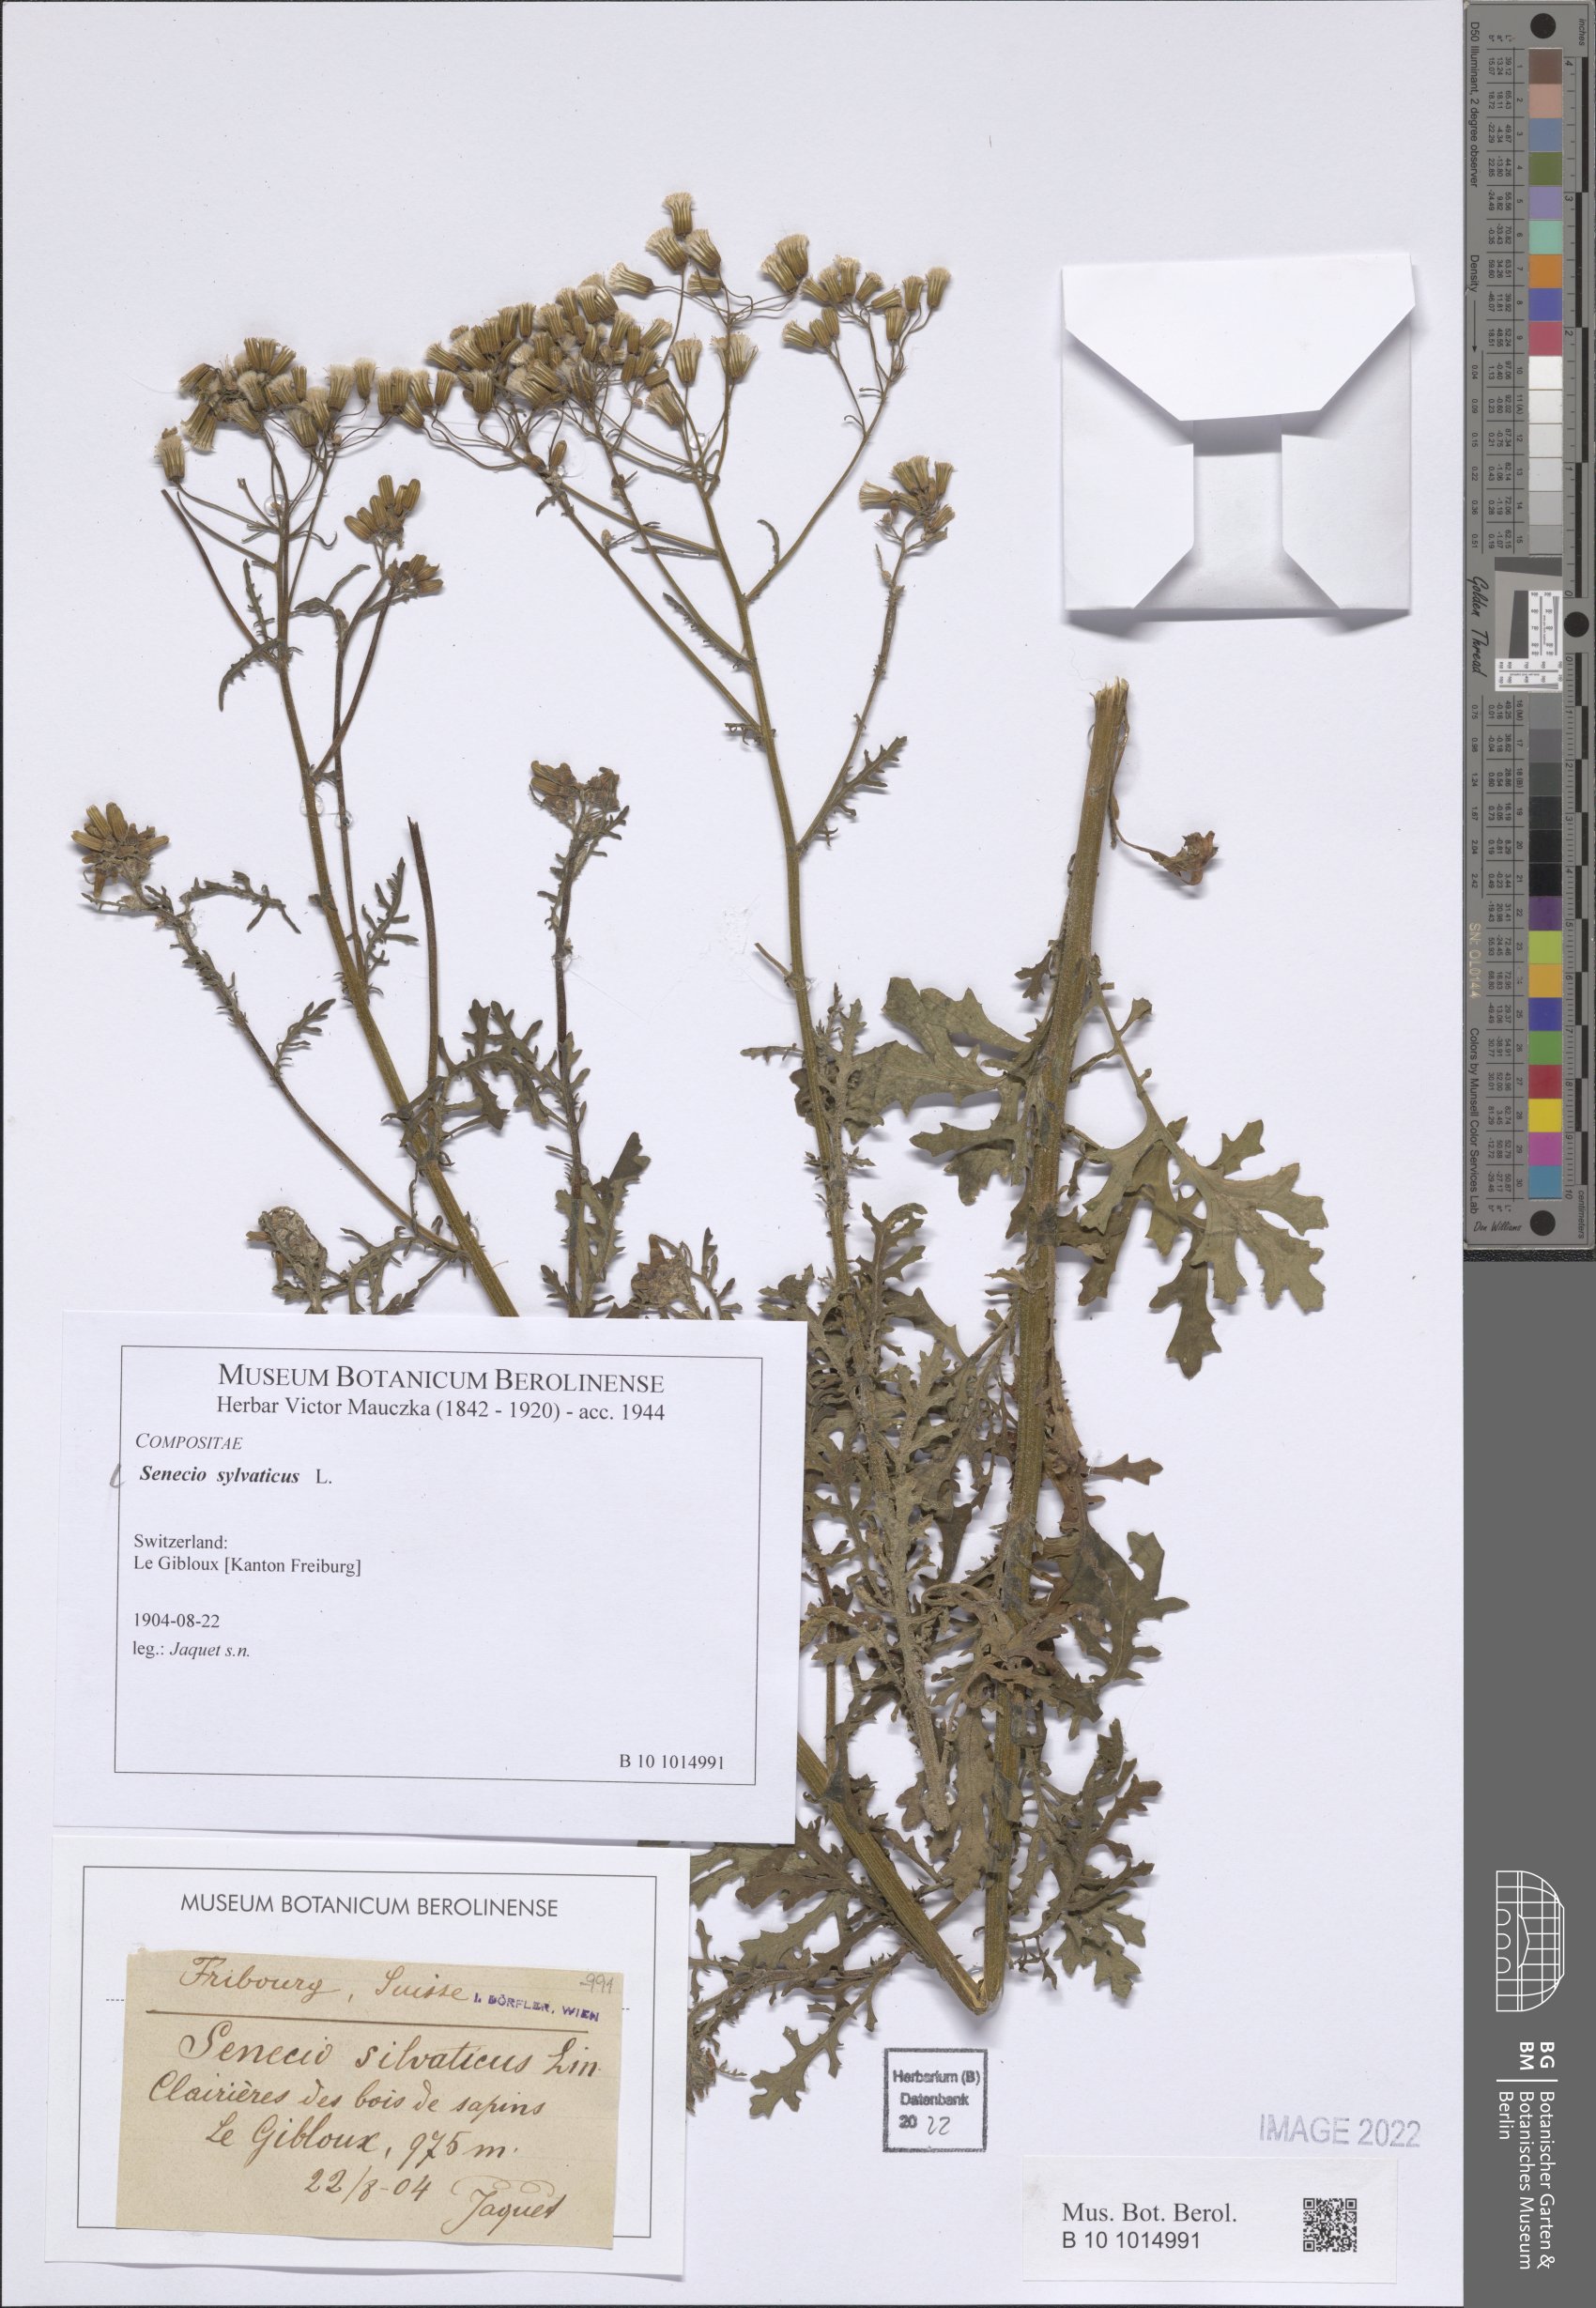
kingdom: Plantae
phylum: Tracheophyta
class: Magnoliopsida
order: Asterales
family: Asteraceae
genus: Senecio
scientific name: Senecio sylvaticus
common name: Woodland ragwort
